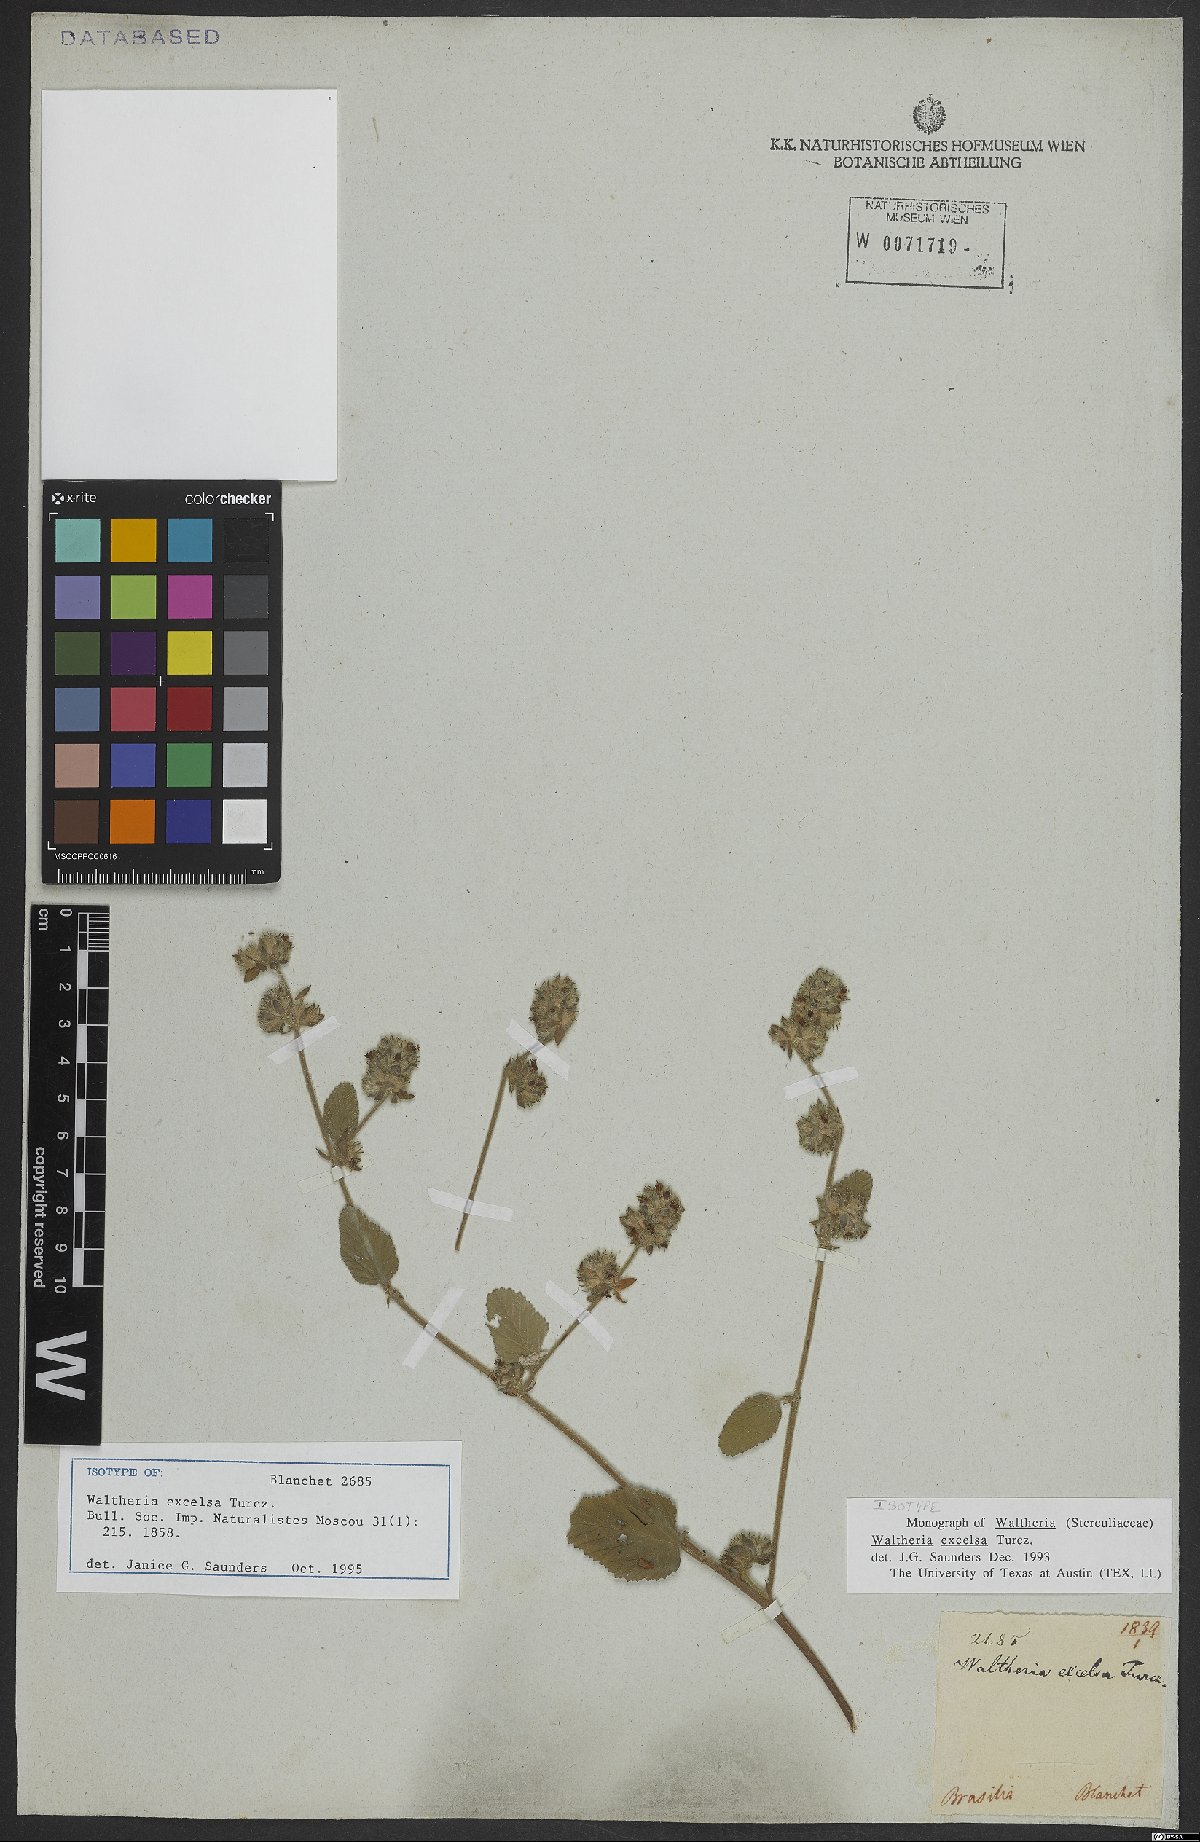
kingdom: Plantae
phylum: Tracheophyta
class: Magnoliopsida
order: Malvales
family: Malvaceae
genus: Waltheria
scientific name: Waltheria excelsa
